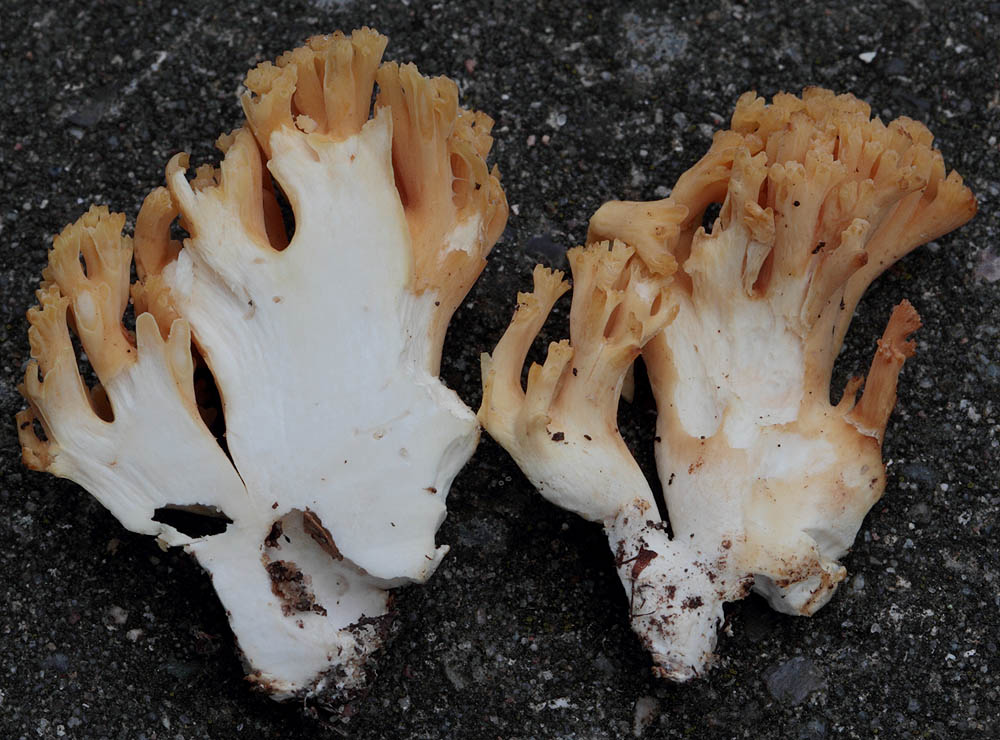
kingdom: Fungi
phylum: Basidiomycota
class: Agaricomycetes
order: Gomphales
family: Gomphaceae
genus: Ramaria
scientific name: Ramaria krieglsteineri
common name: smalsporet koralsvamp
